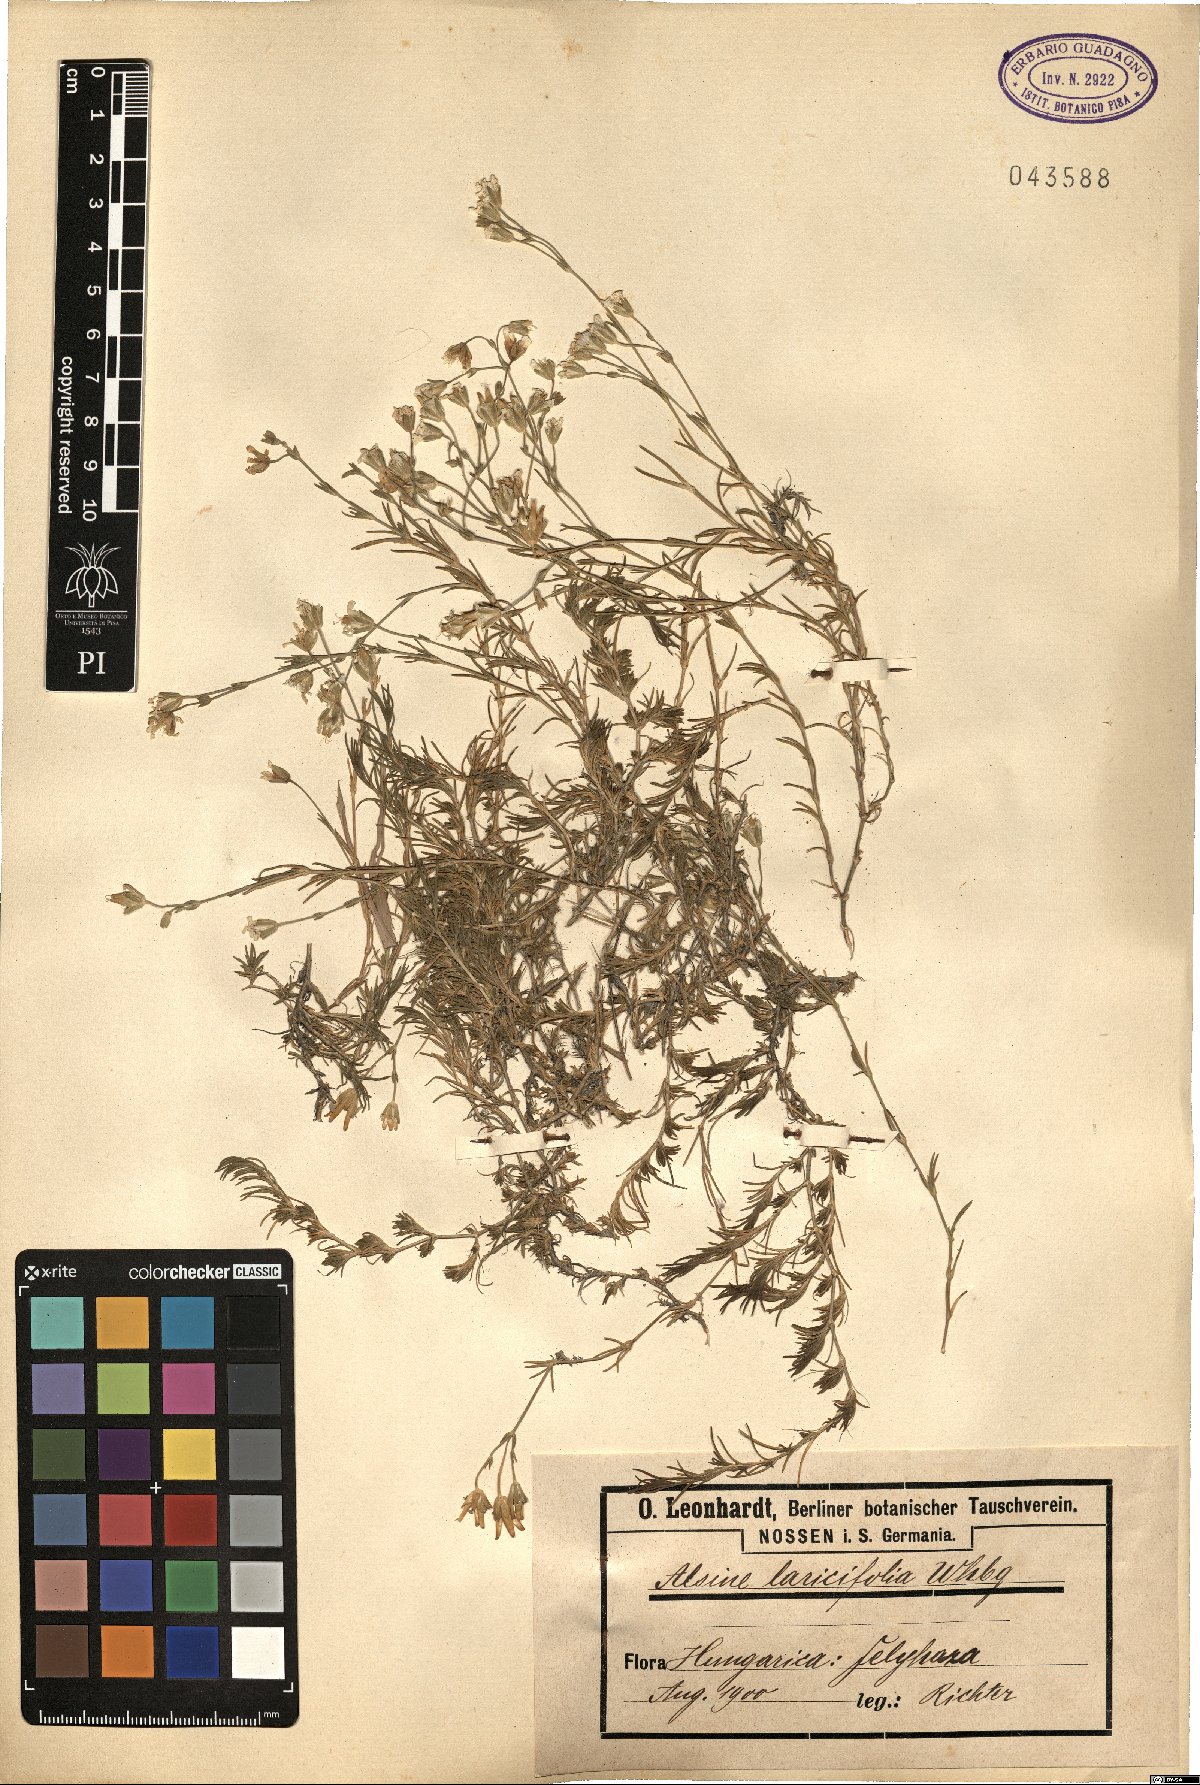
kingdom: Plantae
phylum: Tracheophyta
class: Magnoliopsida
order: Caryophyllales
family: Caryophyllaceae
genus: Cherleria
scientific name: Cherleria laricifolia
